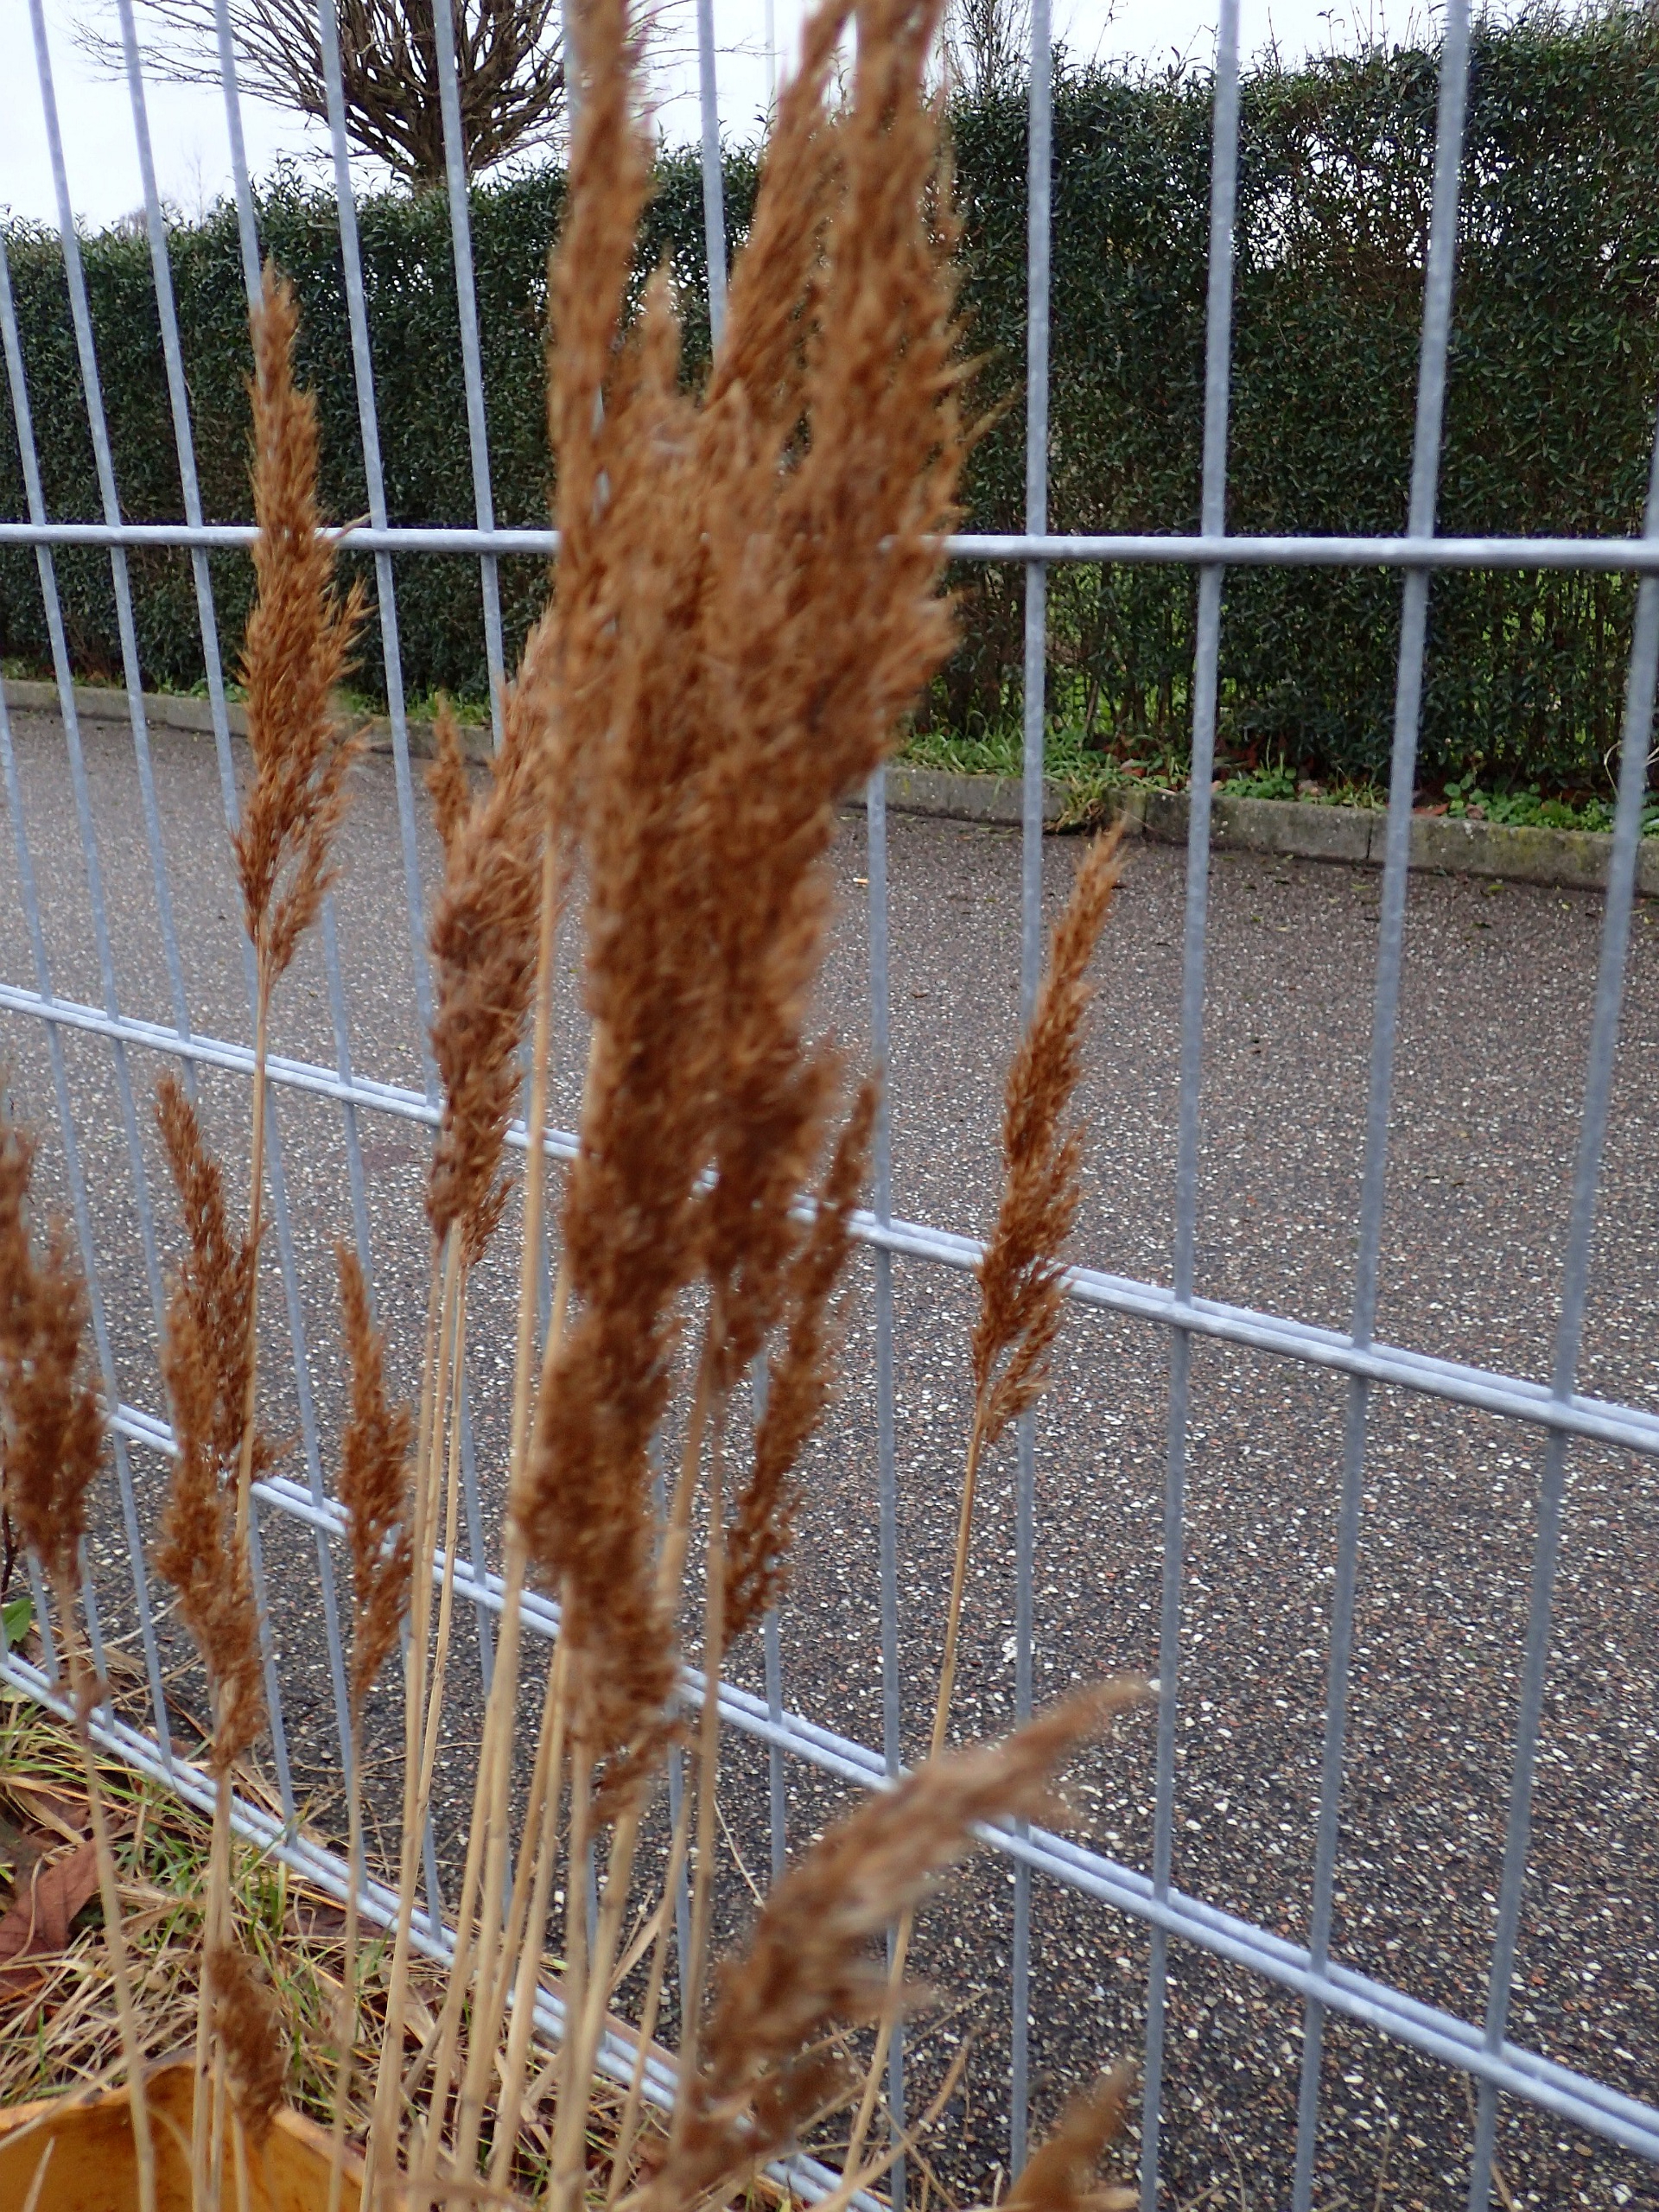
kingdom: Plantae
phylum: Tracheophyta
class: Liliopsida
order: Poales
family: Poaceae
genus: Phragmites
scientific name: Phragmites australis
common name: Tagrør
